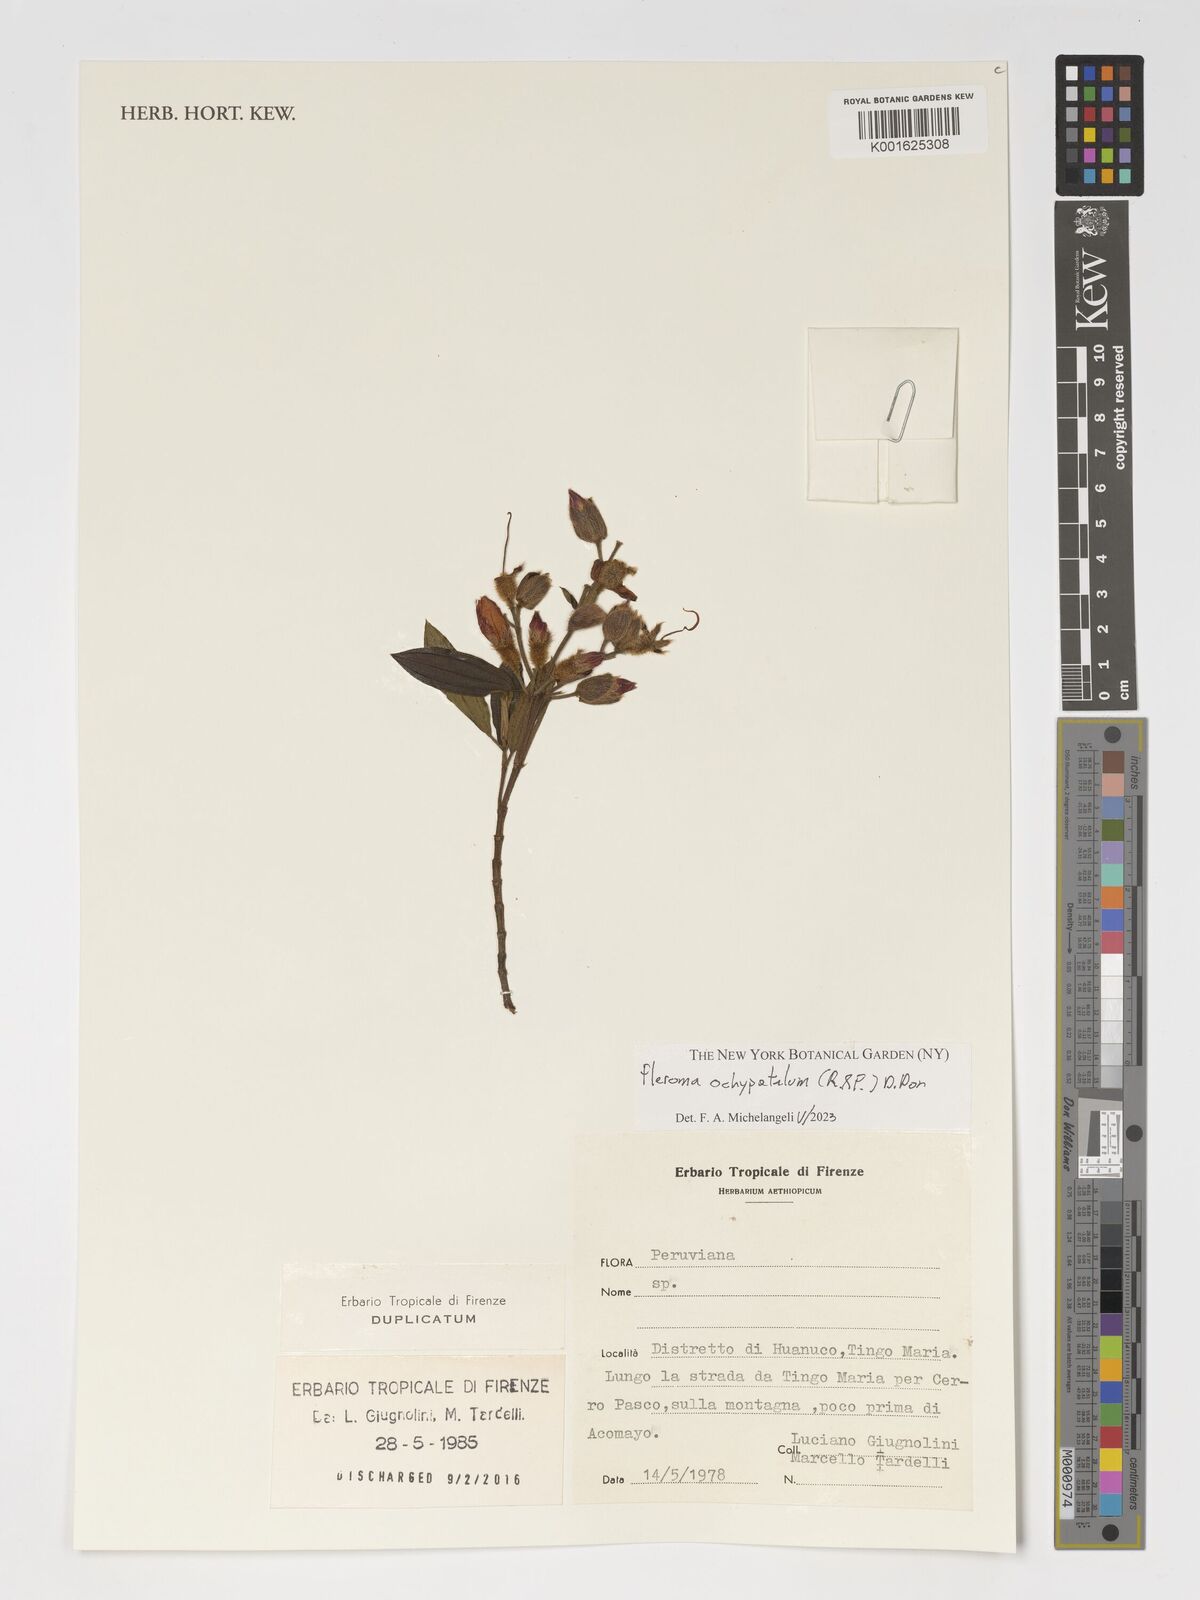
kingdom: Plantae
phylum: Tracheophyta
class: Magnoliopsida
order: Myrtales
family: Melastomataceae
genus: Pleroma
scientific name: Pleroma ochypetalum
